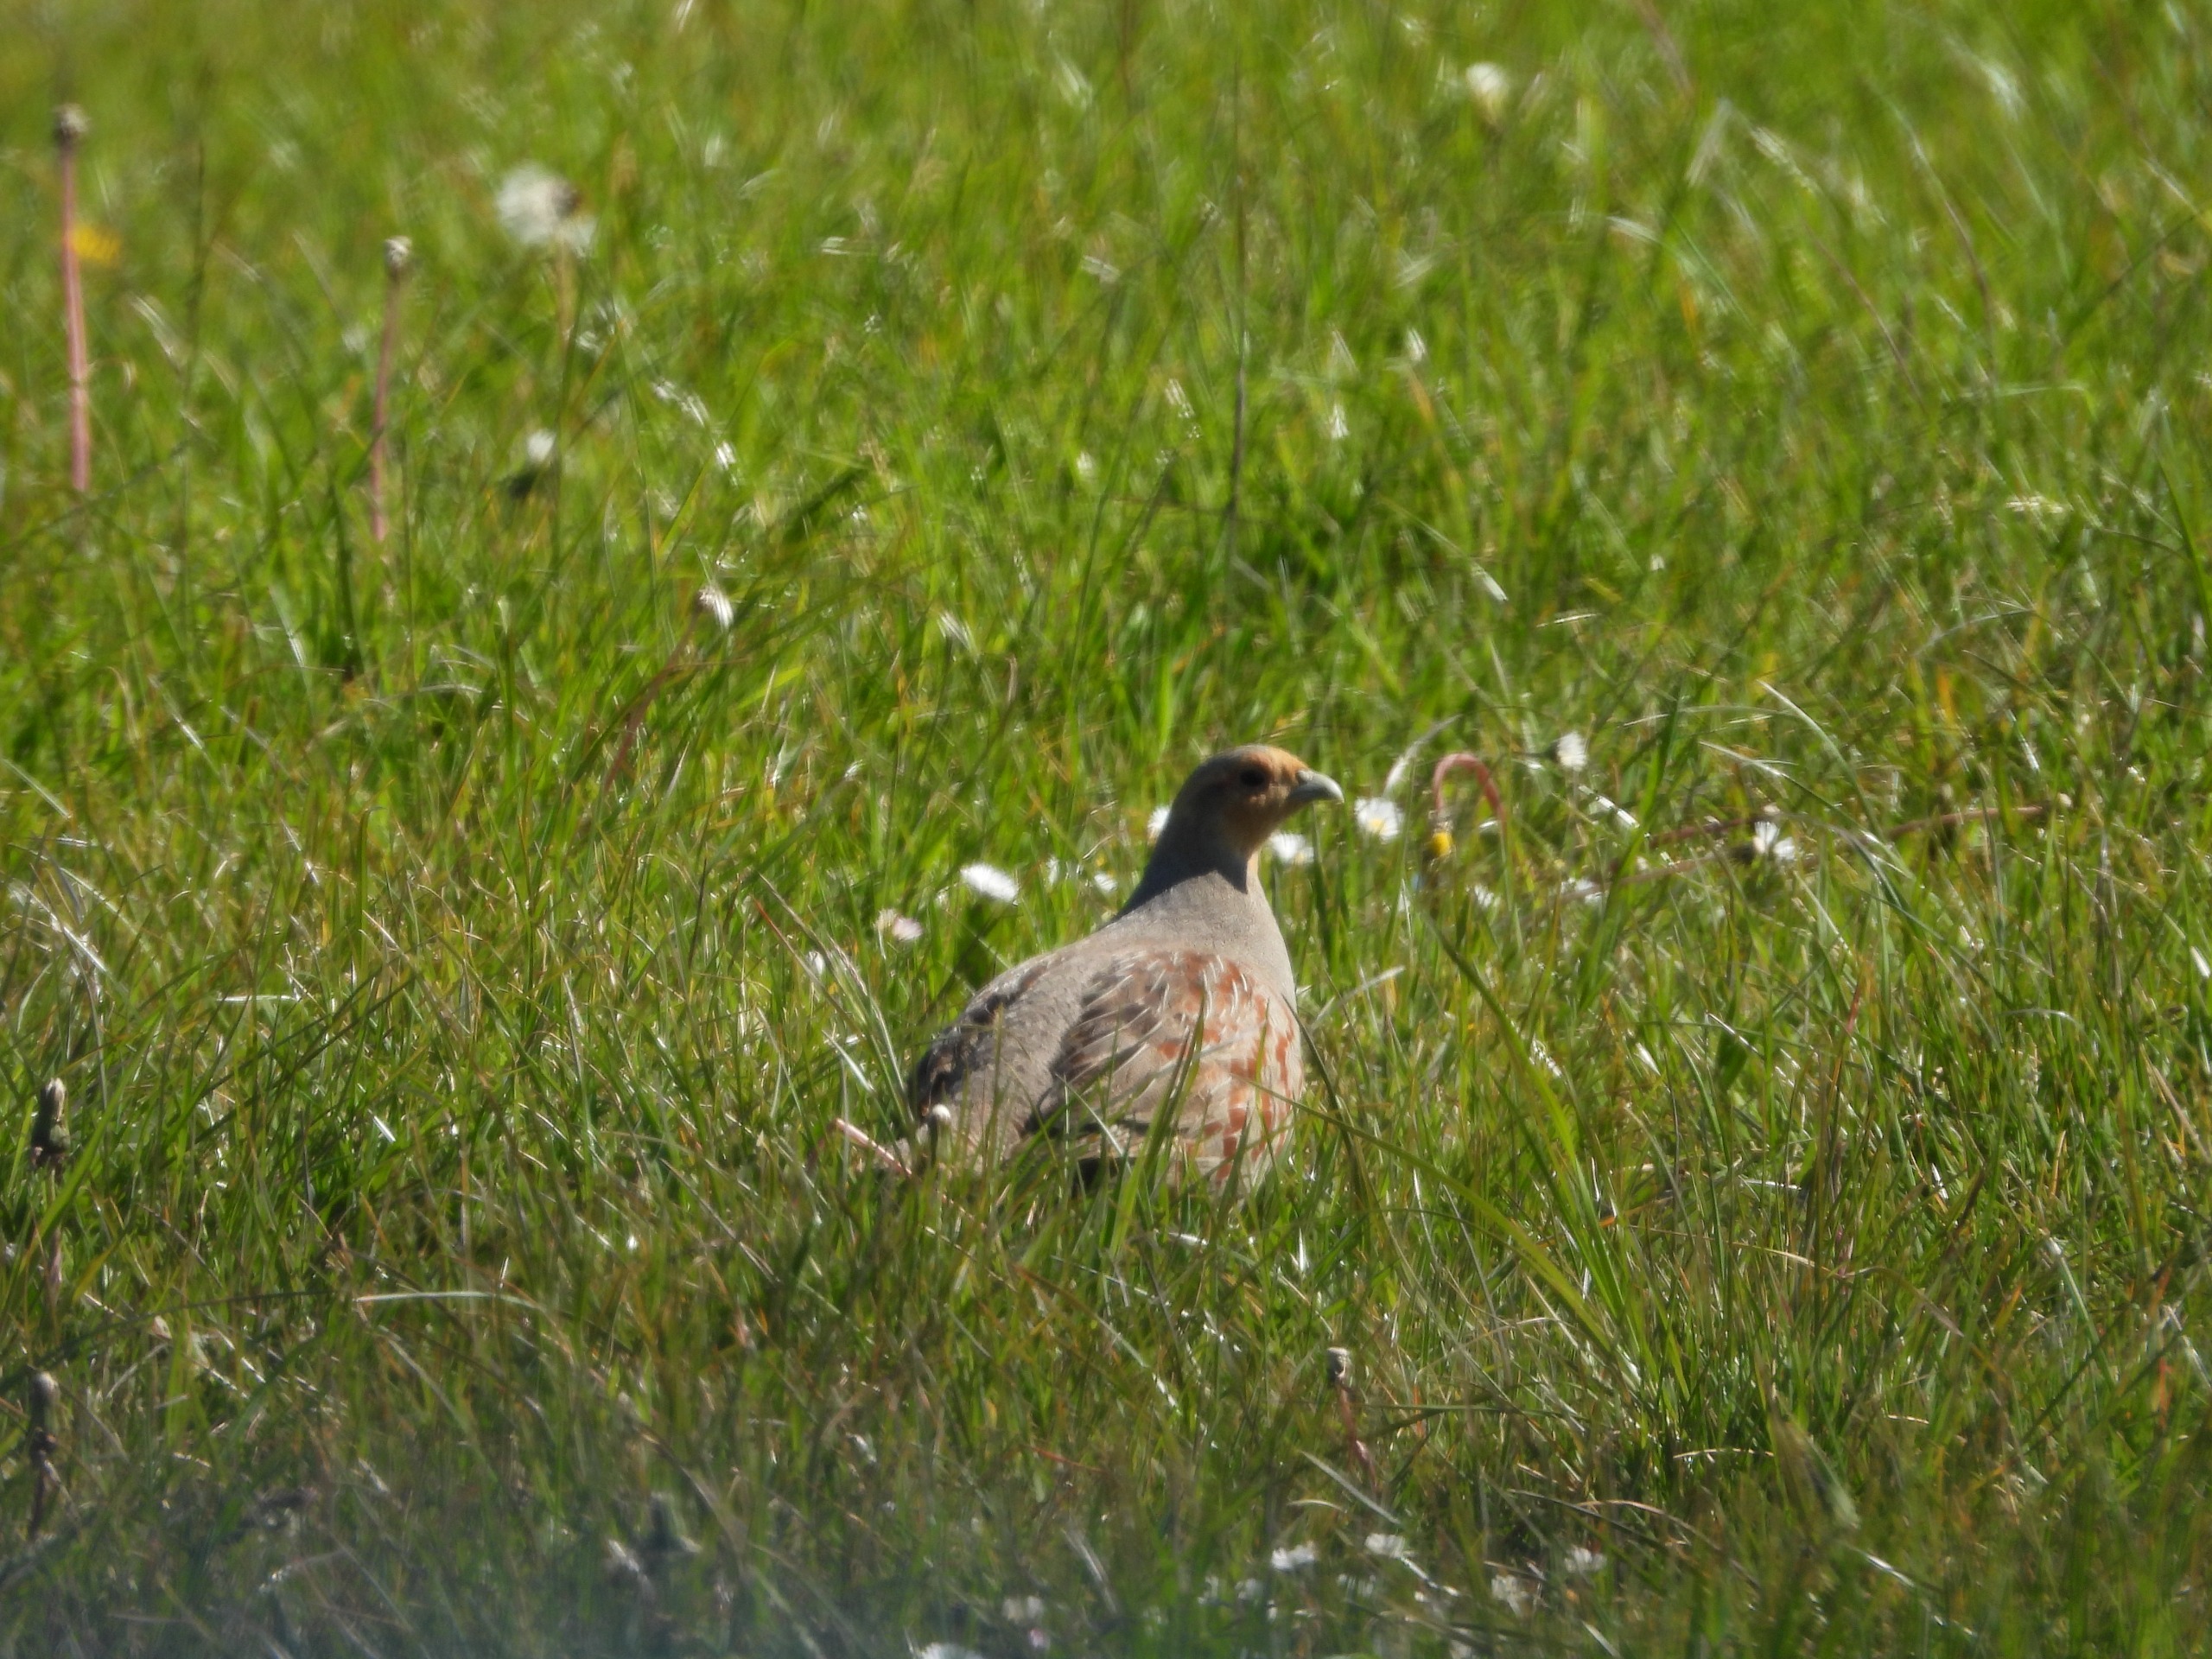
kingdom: Animalia
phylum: Chordata
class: Aves
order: Galliformes
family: Phasianidae
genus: Perdix
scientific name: Perdix perdix
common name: Agerhøne
